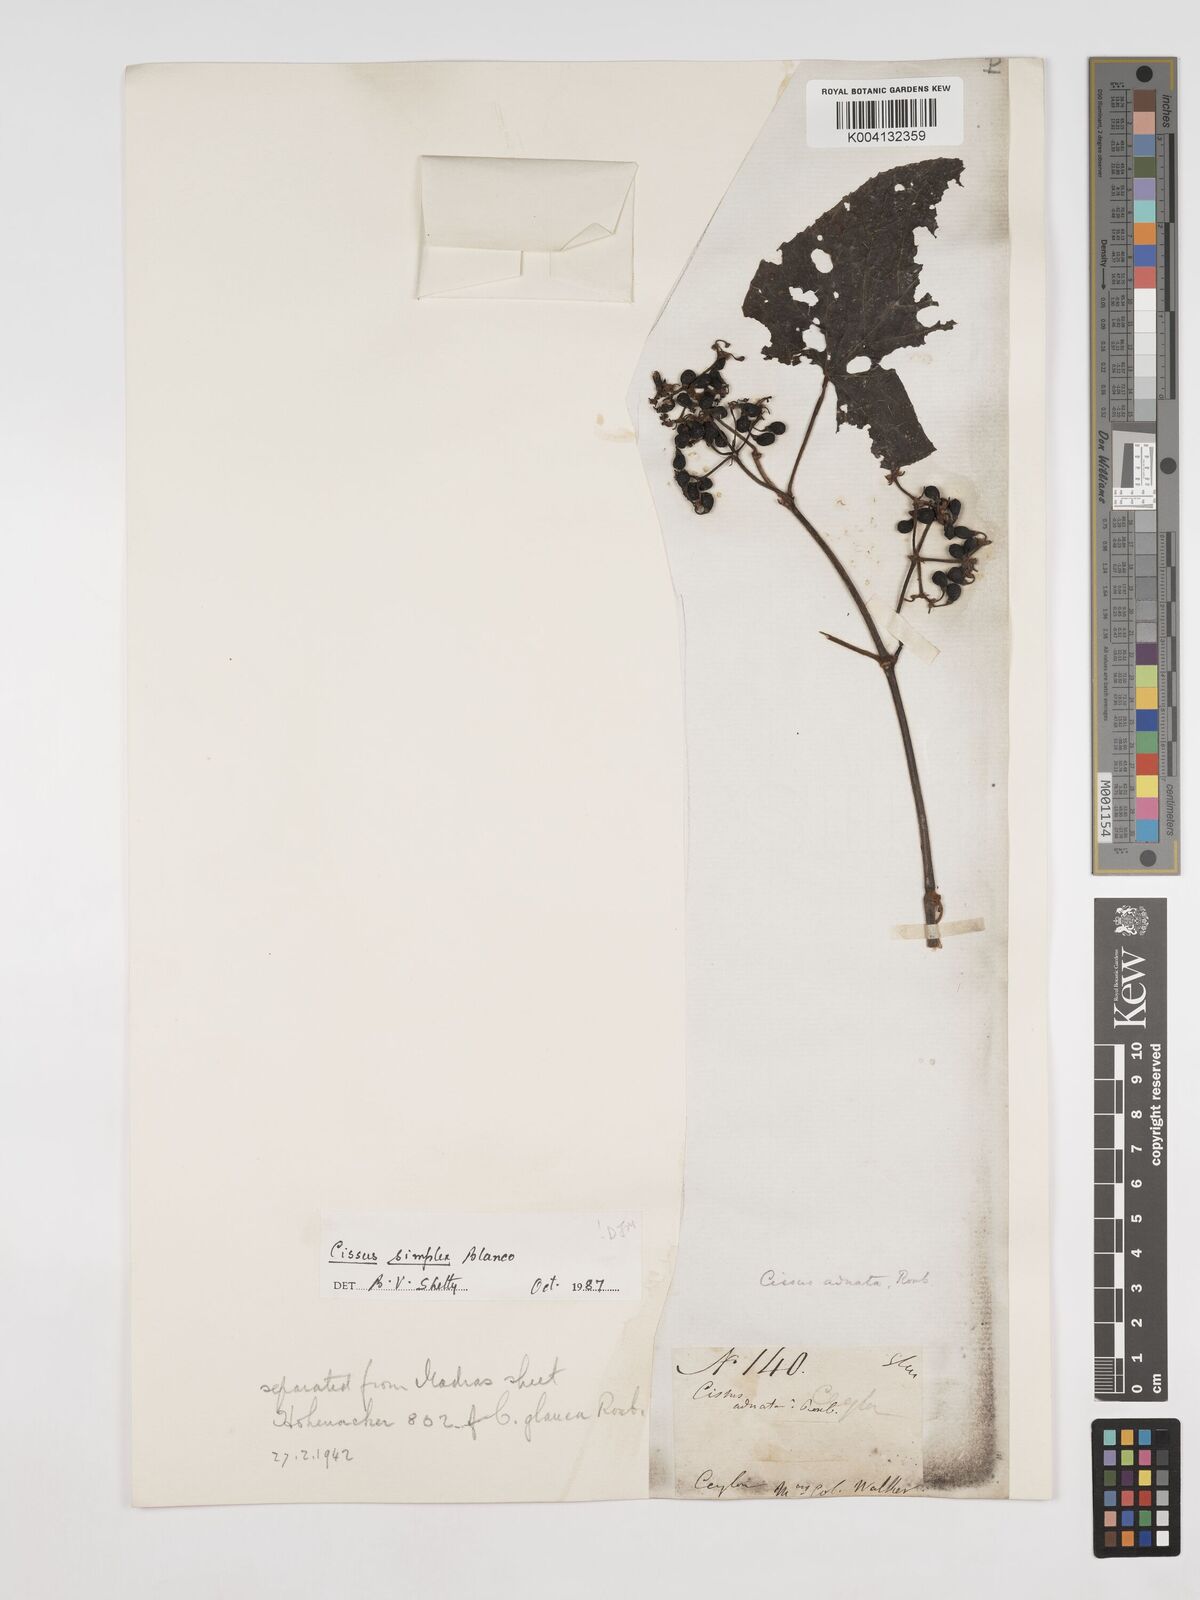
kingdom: Plantae
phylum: Tracheophyta
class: Magnoliopsida
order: Vitales
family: Vitaceae
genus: Cissus
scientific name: Cissus glyptocarpa
